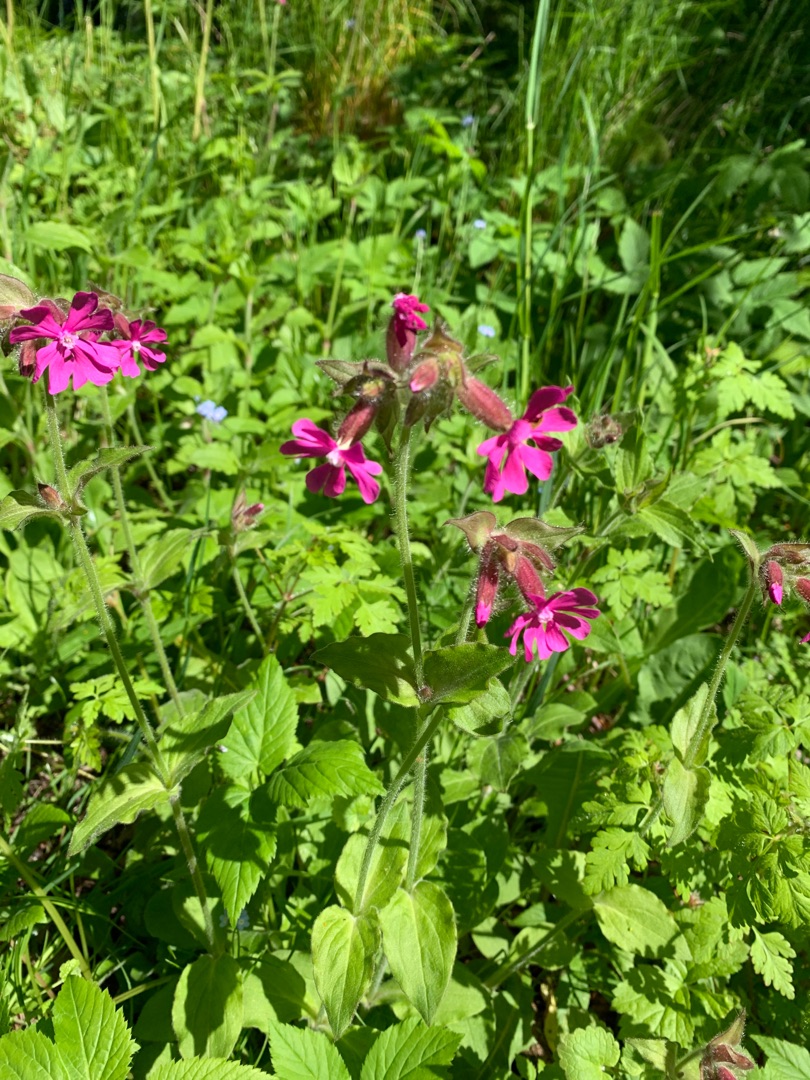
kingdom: Plantae
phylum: Tracheophyta
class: Magnoliopsida
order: Caryophyllales
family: Caryophyllaceae
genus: Silene
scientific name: Silene dioica
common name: Dagpragtstjerne
